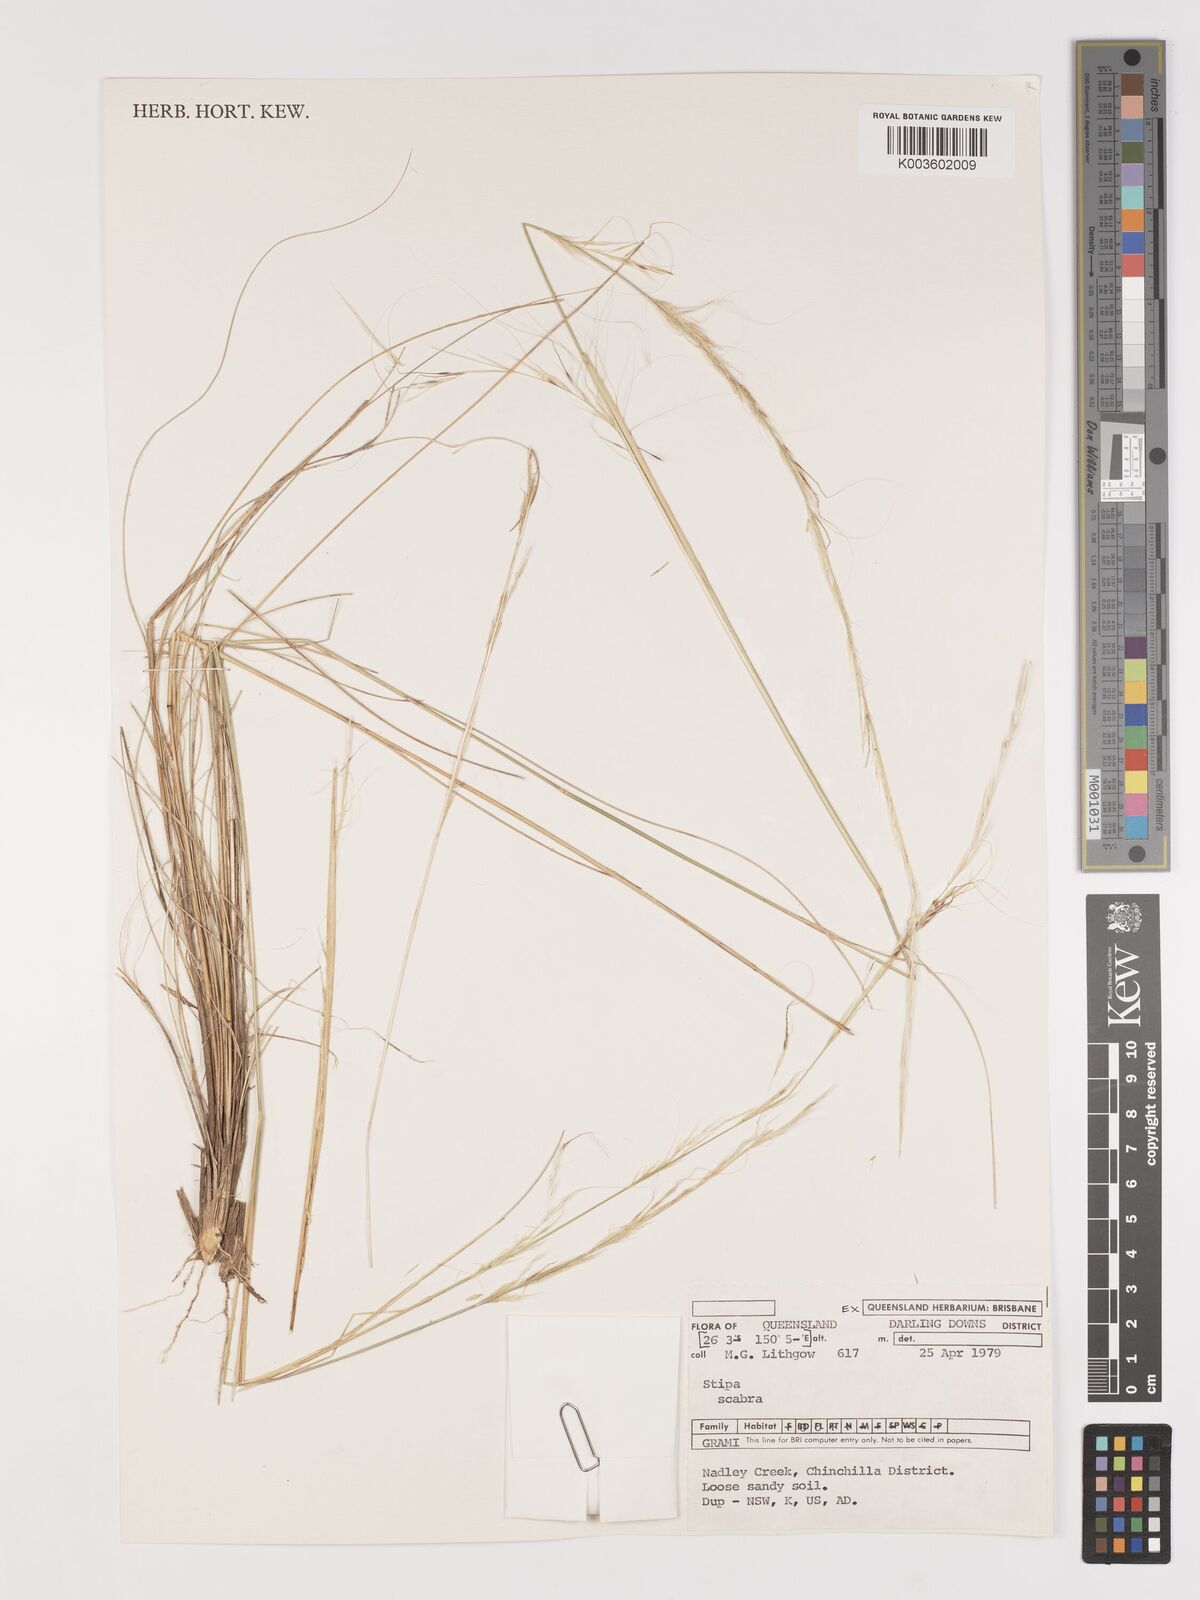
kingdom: Plantae
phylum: Tracheophyta
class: Liliopsida
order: Poales
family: Poaceae
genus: Austrostipa
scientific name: Austrostipa scabra
